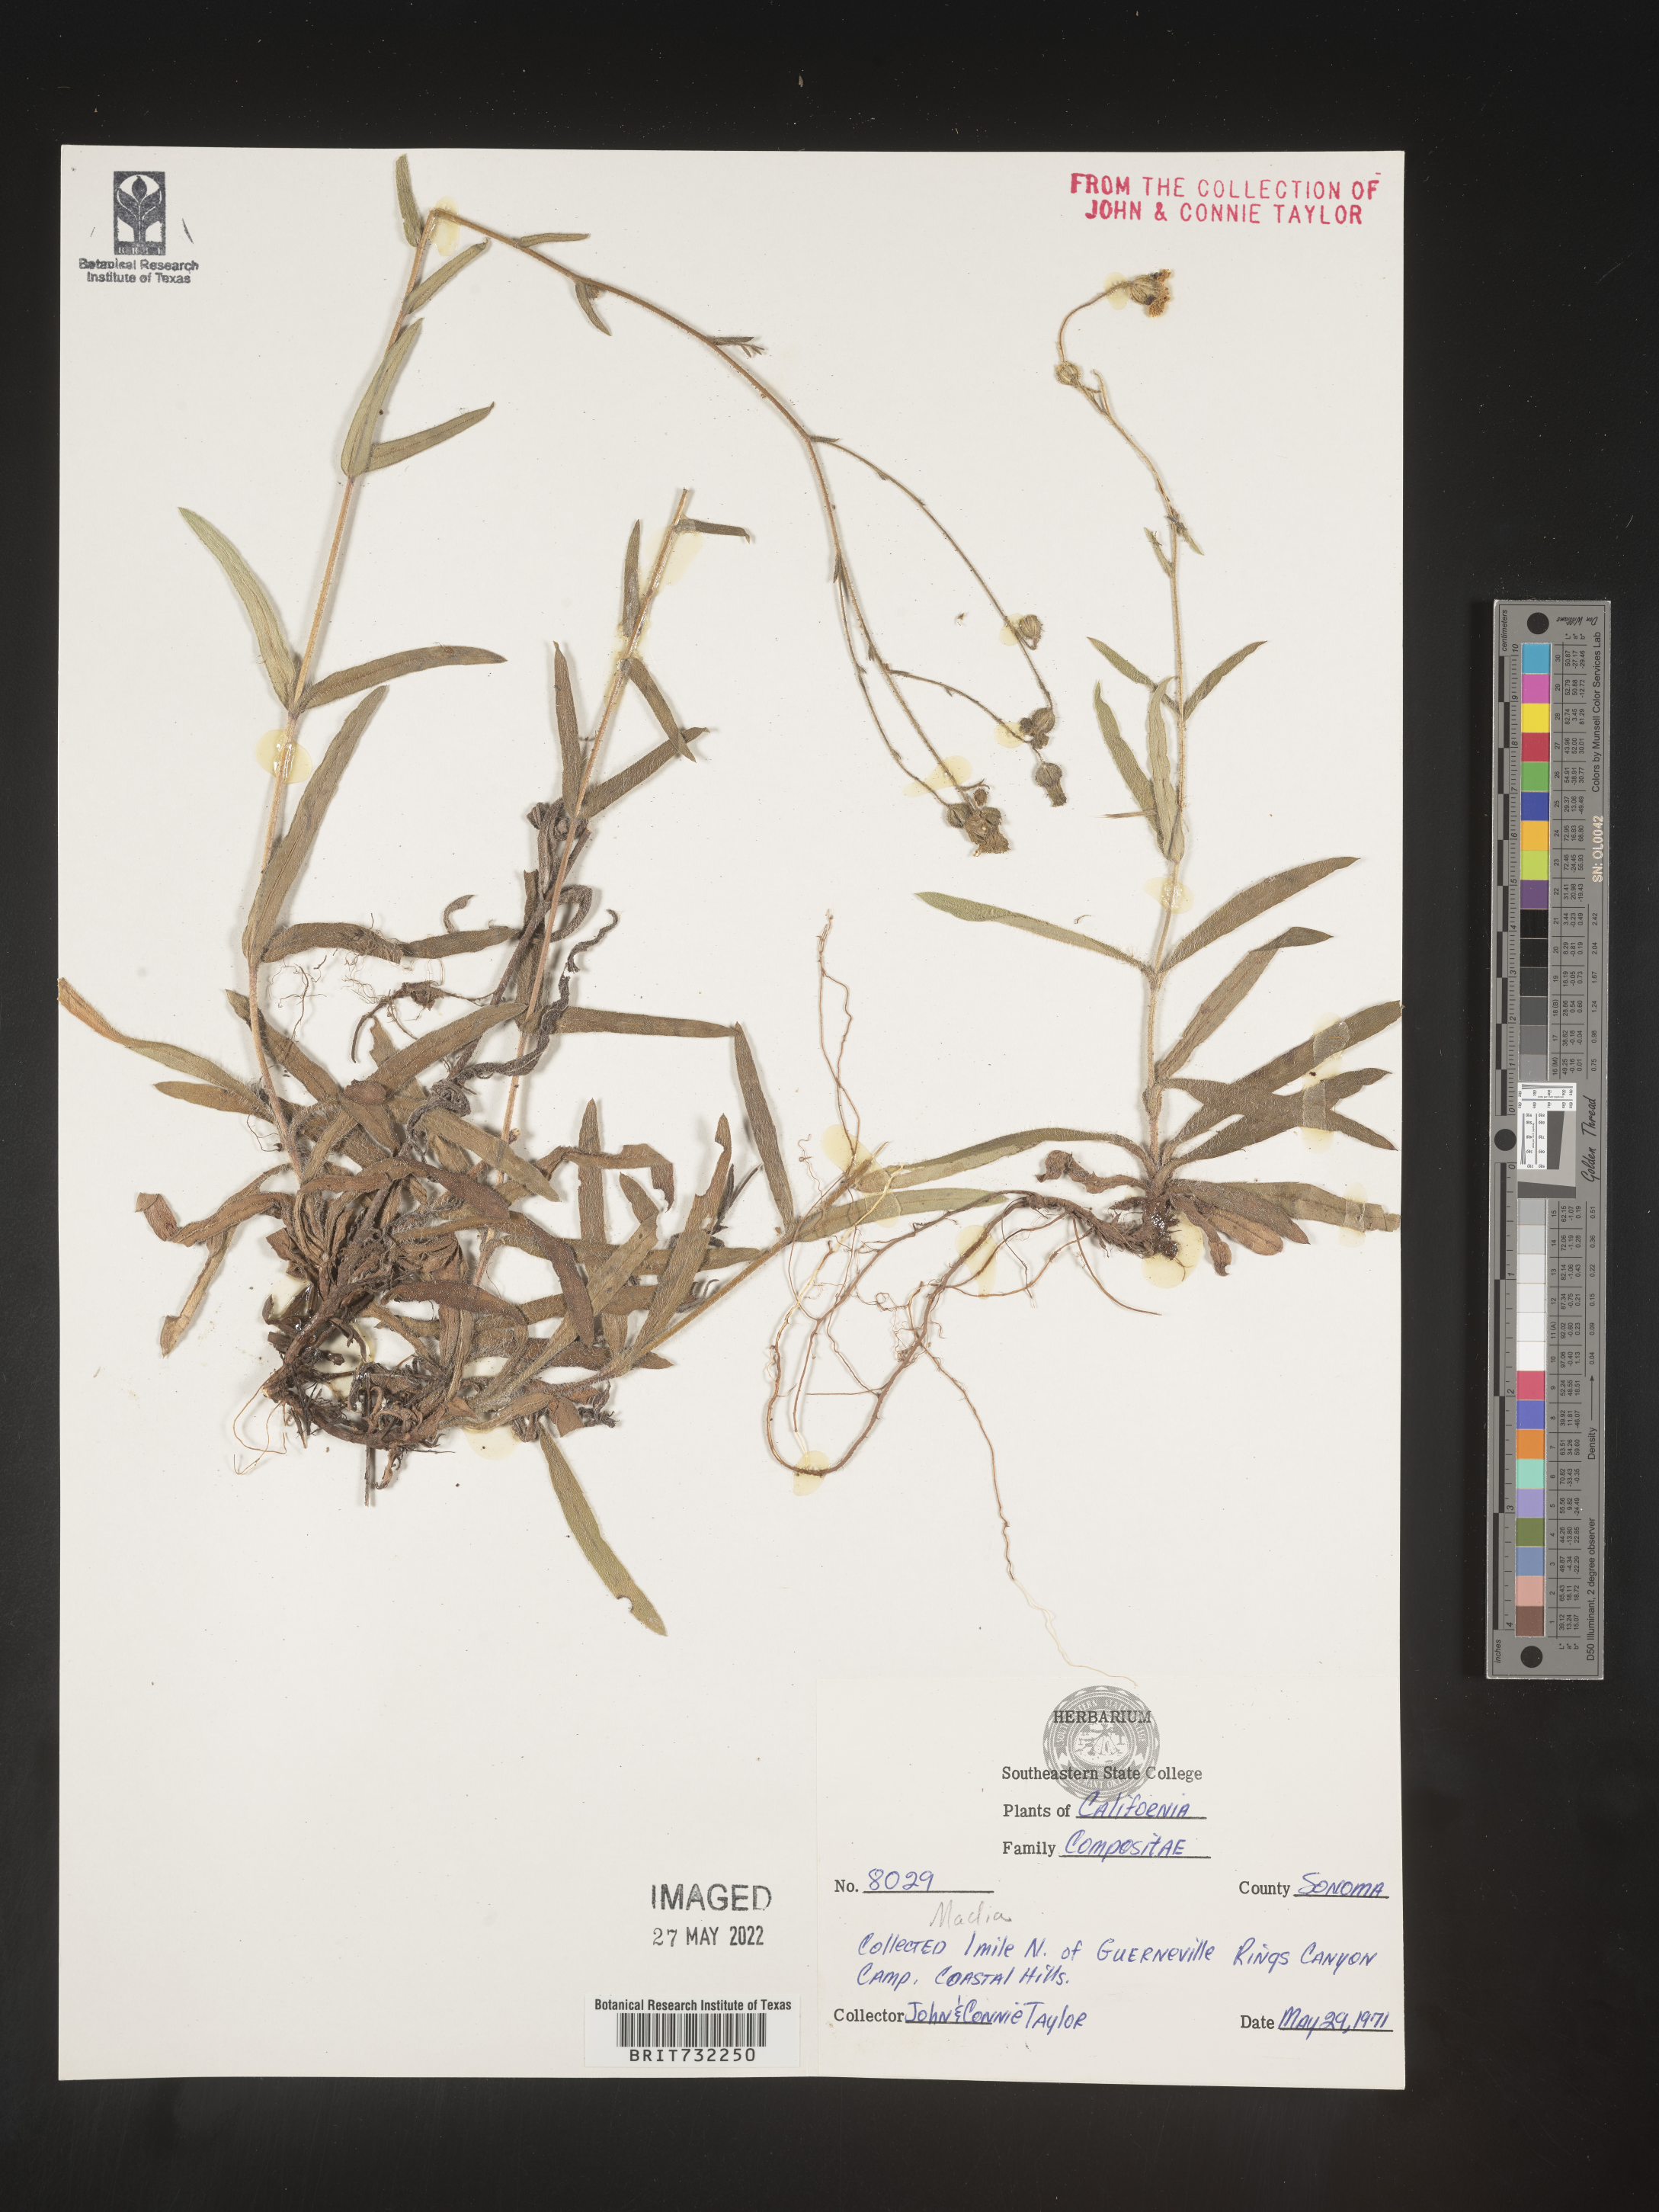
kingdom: Plantae
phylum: Tracheophyta
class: Magnoliopsida
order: Asterales
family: Asteraceae
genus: Madia
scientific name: Madia
